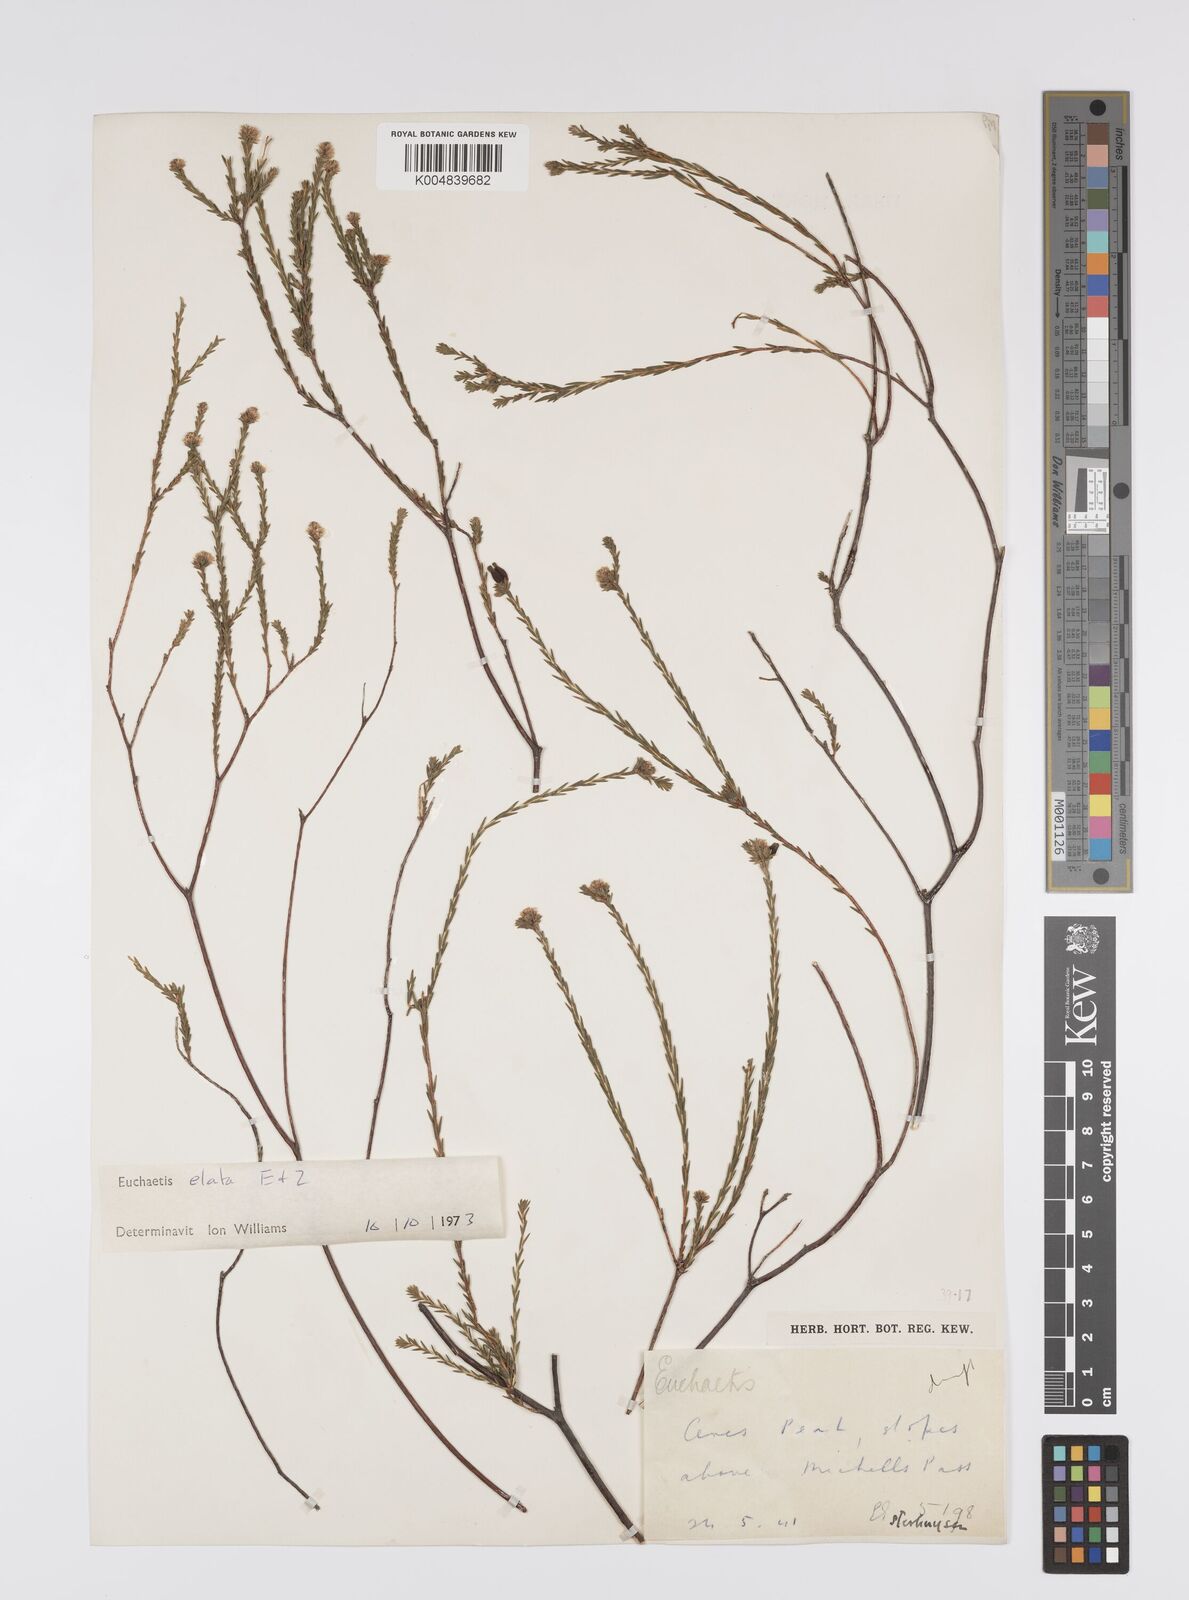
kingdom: Plantae
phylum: Tracheophyta
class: Magnoliopsida
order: Sapindales
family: Rutaceae
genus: Euchaetis
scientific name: Euchaetis elata
